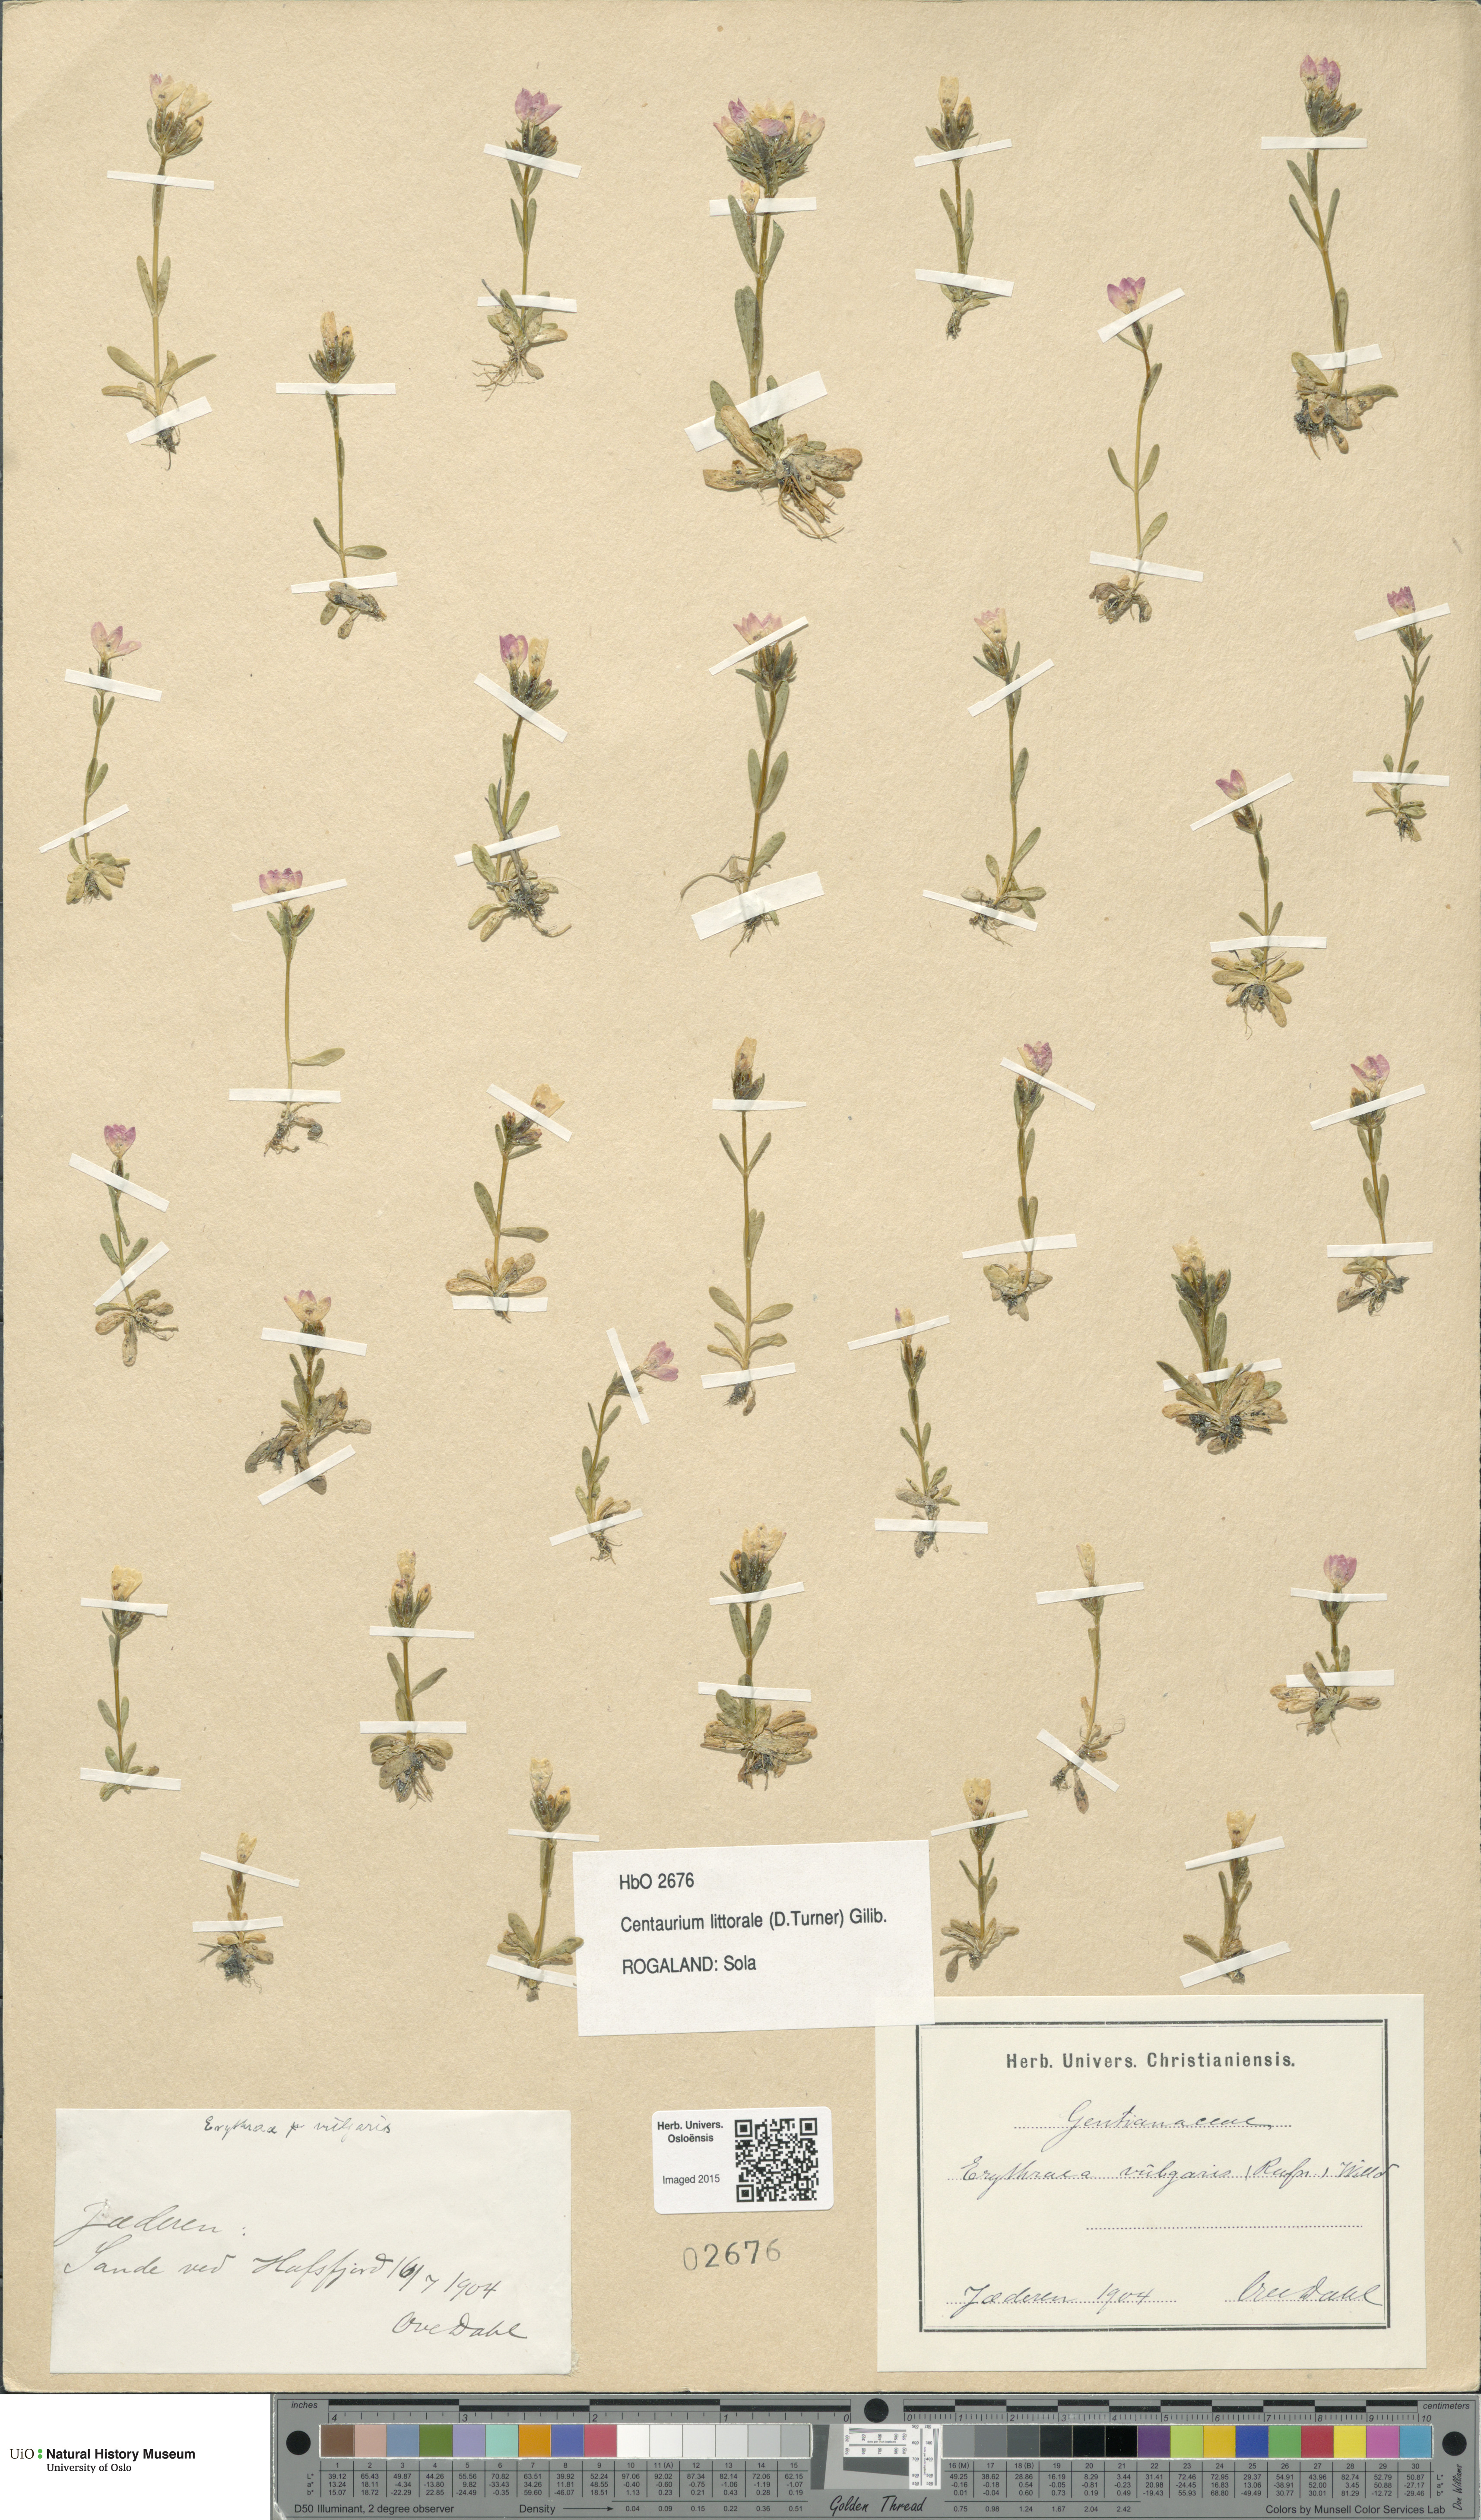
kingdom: Plantae
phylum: Tracheophyta
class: Magnoliopsida
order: Gentianales
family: Gentianaceae
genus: Centaurium
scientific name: Centaurium littorale
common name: Seaside centaury
